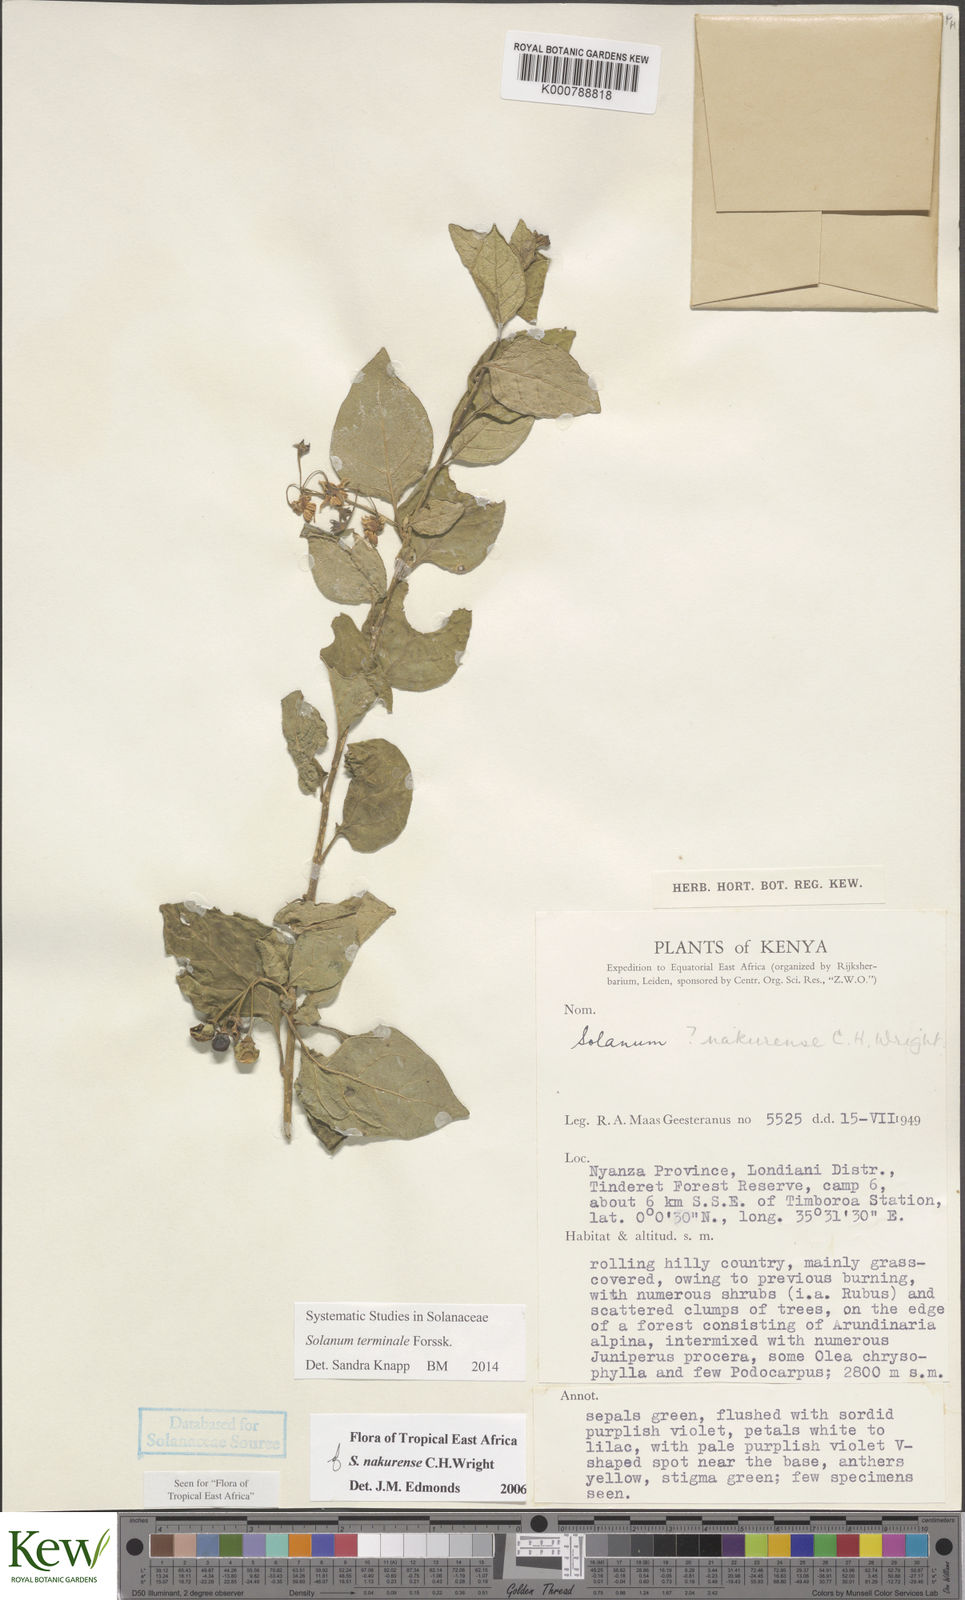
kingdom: Plantae
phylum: Tracheophyta
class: Magnoliopsida
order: Solanales
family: Solanaceae
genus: Solanum
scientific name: Solanum terminale
